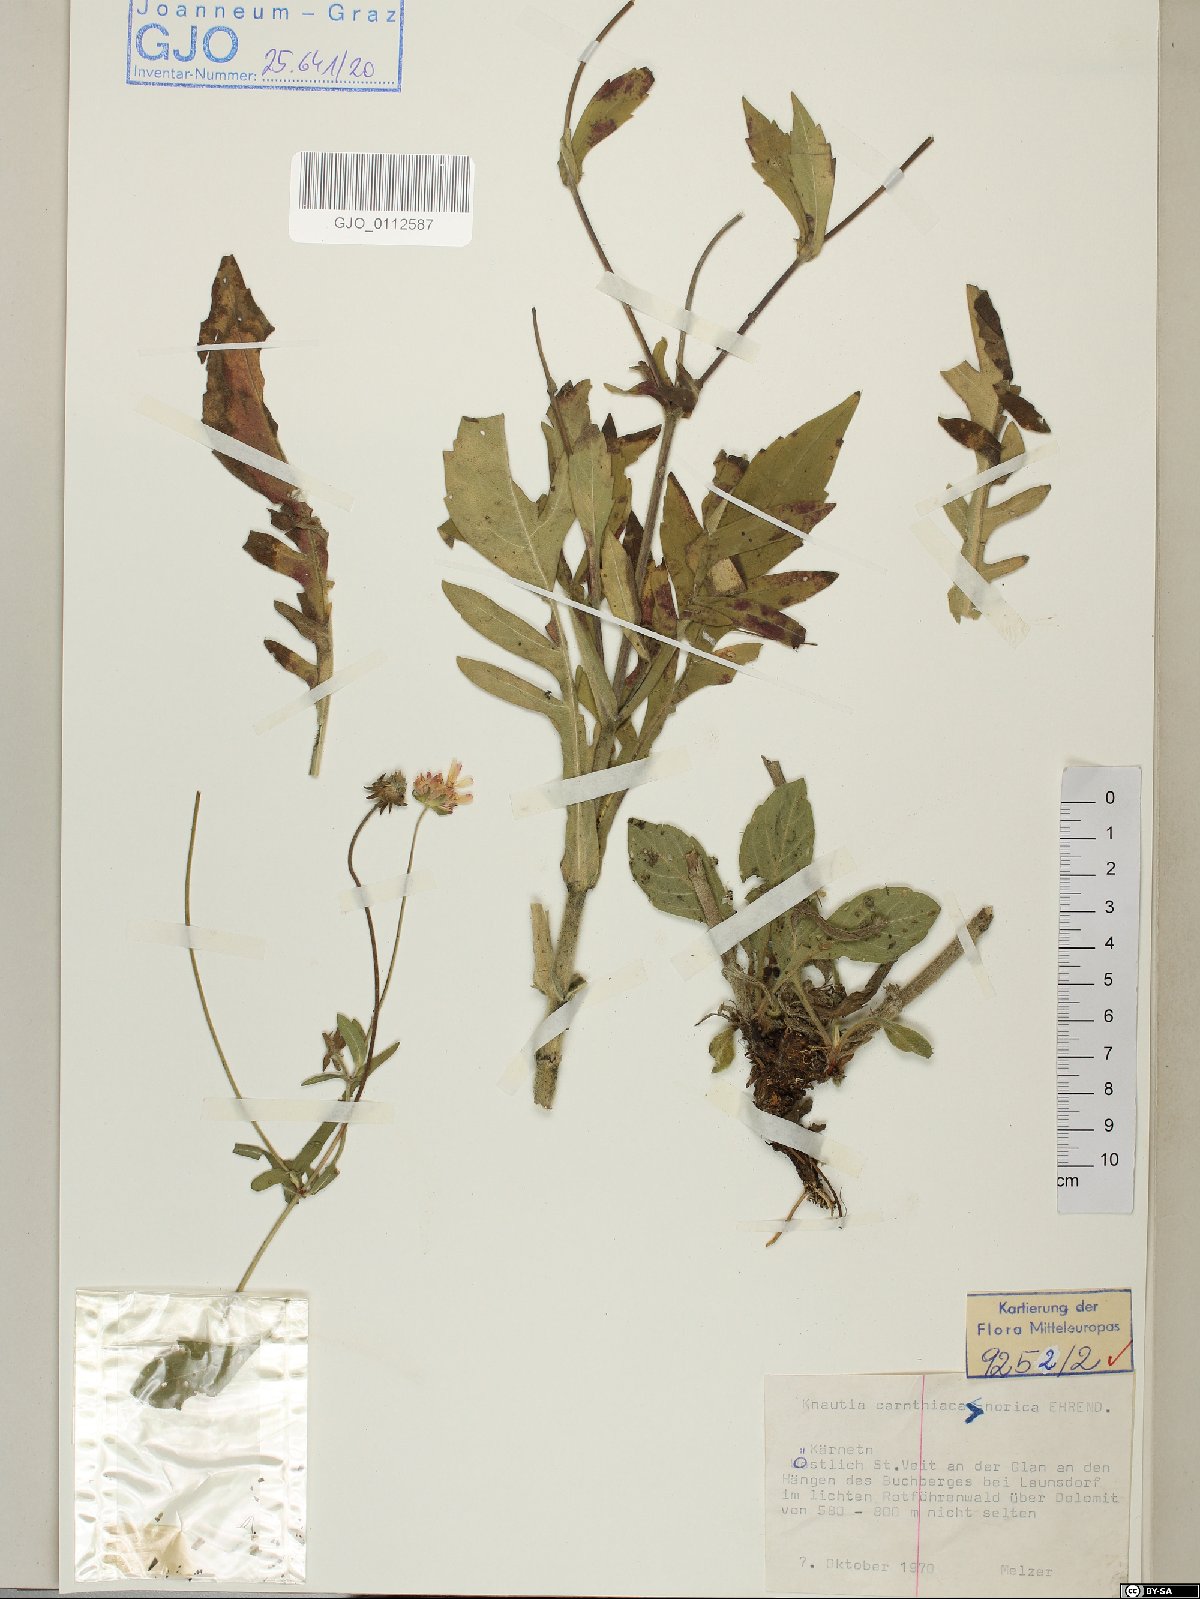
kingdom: Plantae
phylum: Tracheophyta
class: Magnoliopsida
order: Dipsacales
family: Dipsacaceae
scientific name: Dipsacaceae
